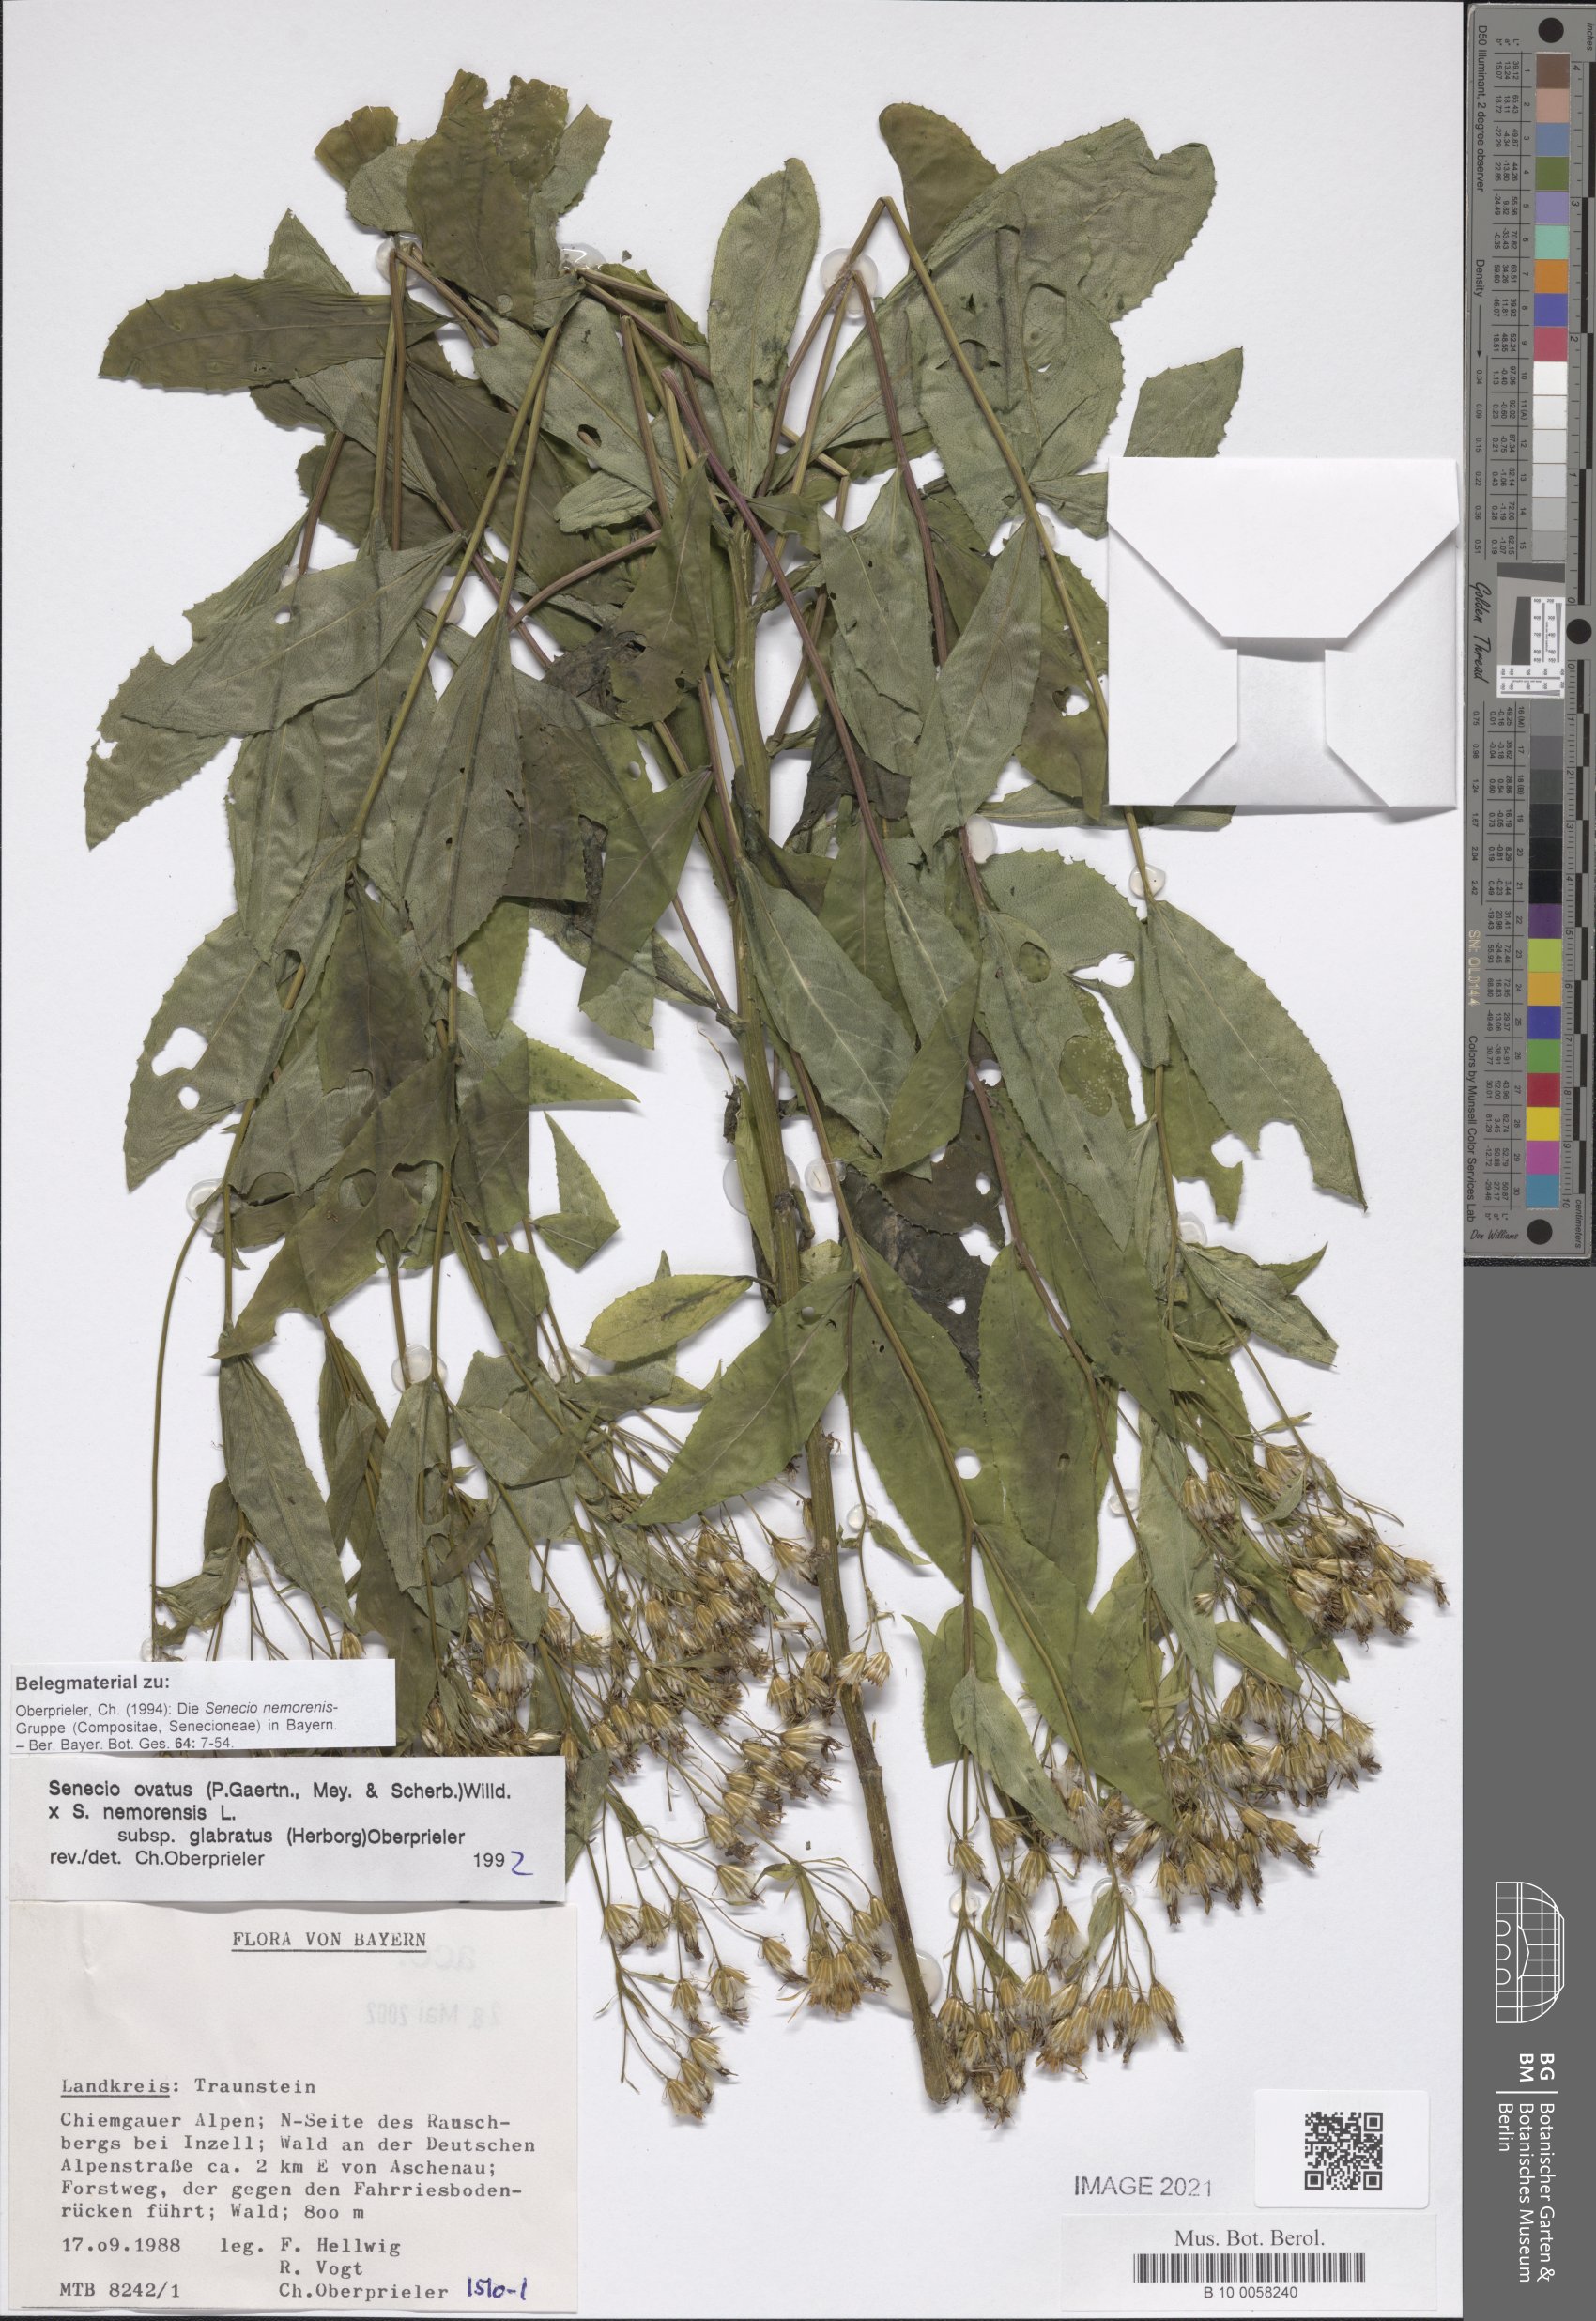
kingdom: Plantae
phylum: Tracheophyta
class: Magnoliopsida
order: Asterales
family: Asteraceae
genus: Senecio
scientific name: Senecio ovatus
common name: Wood ragwort
